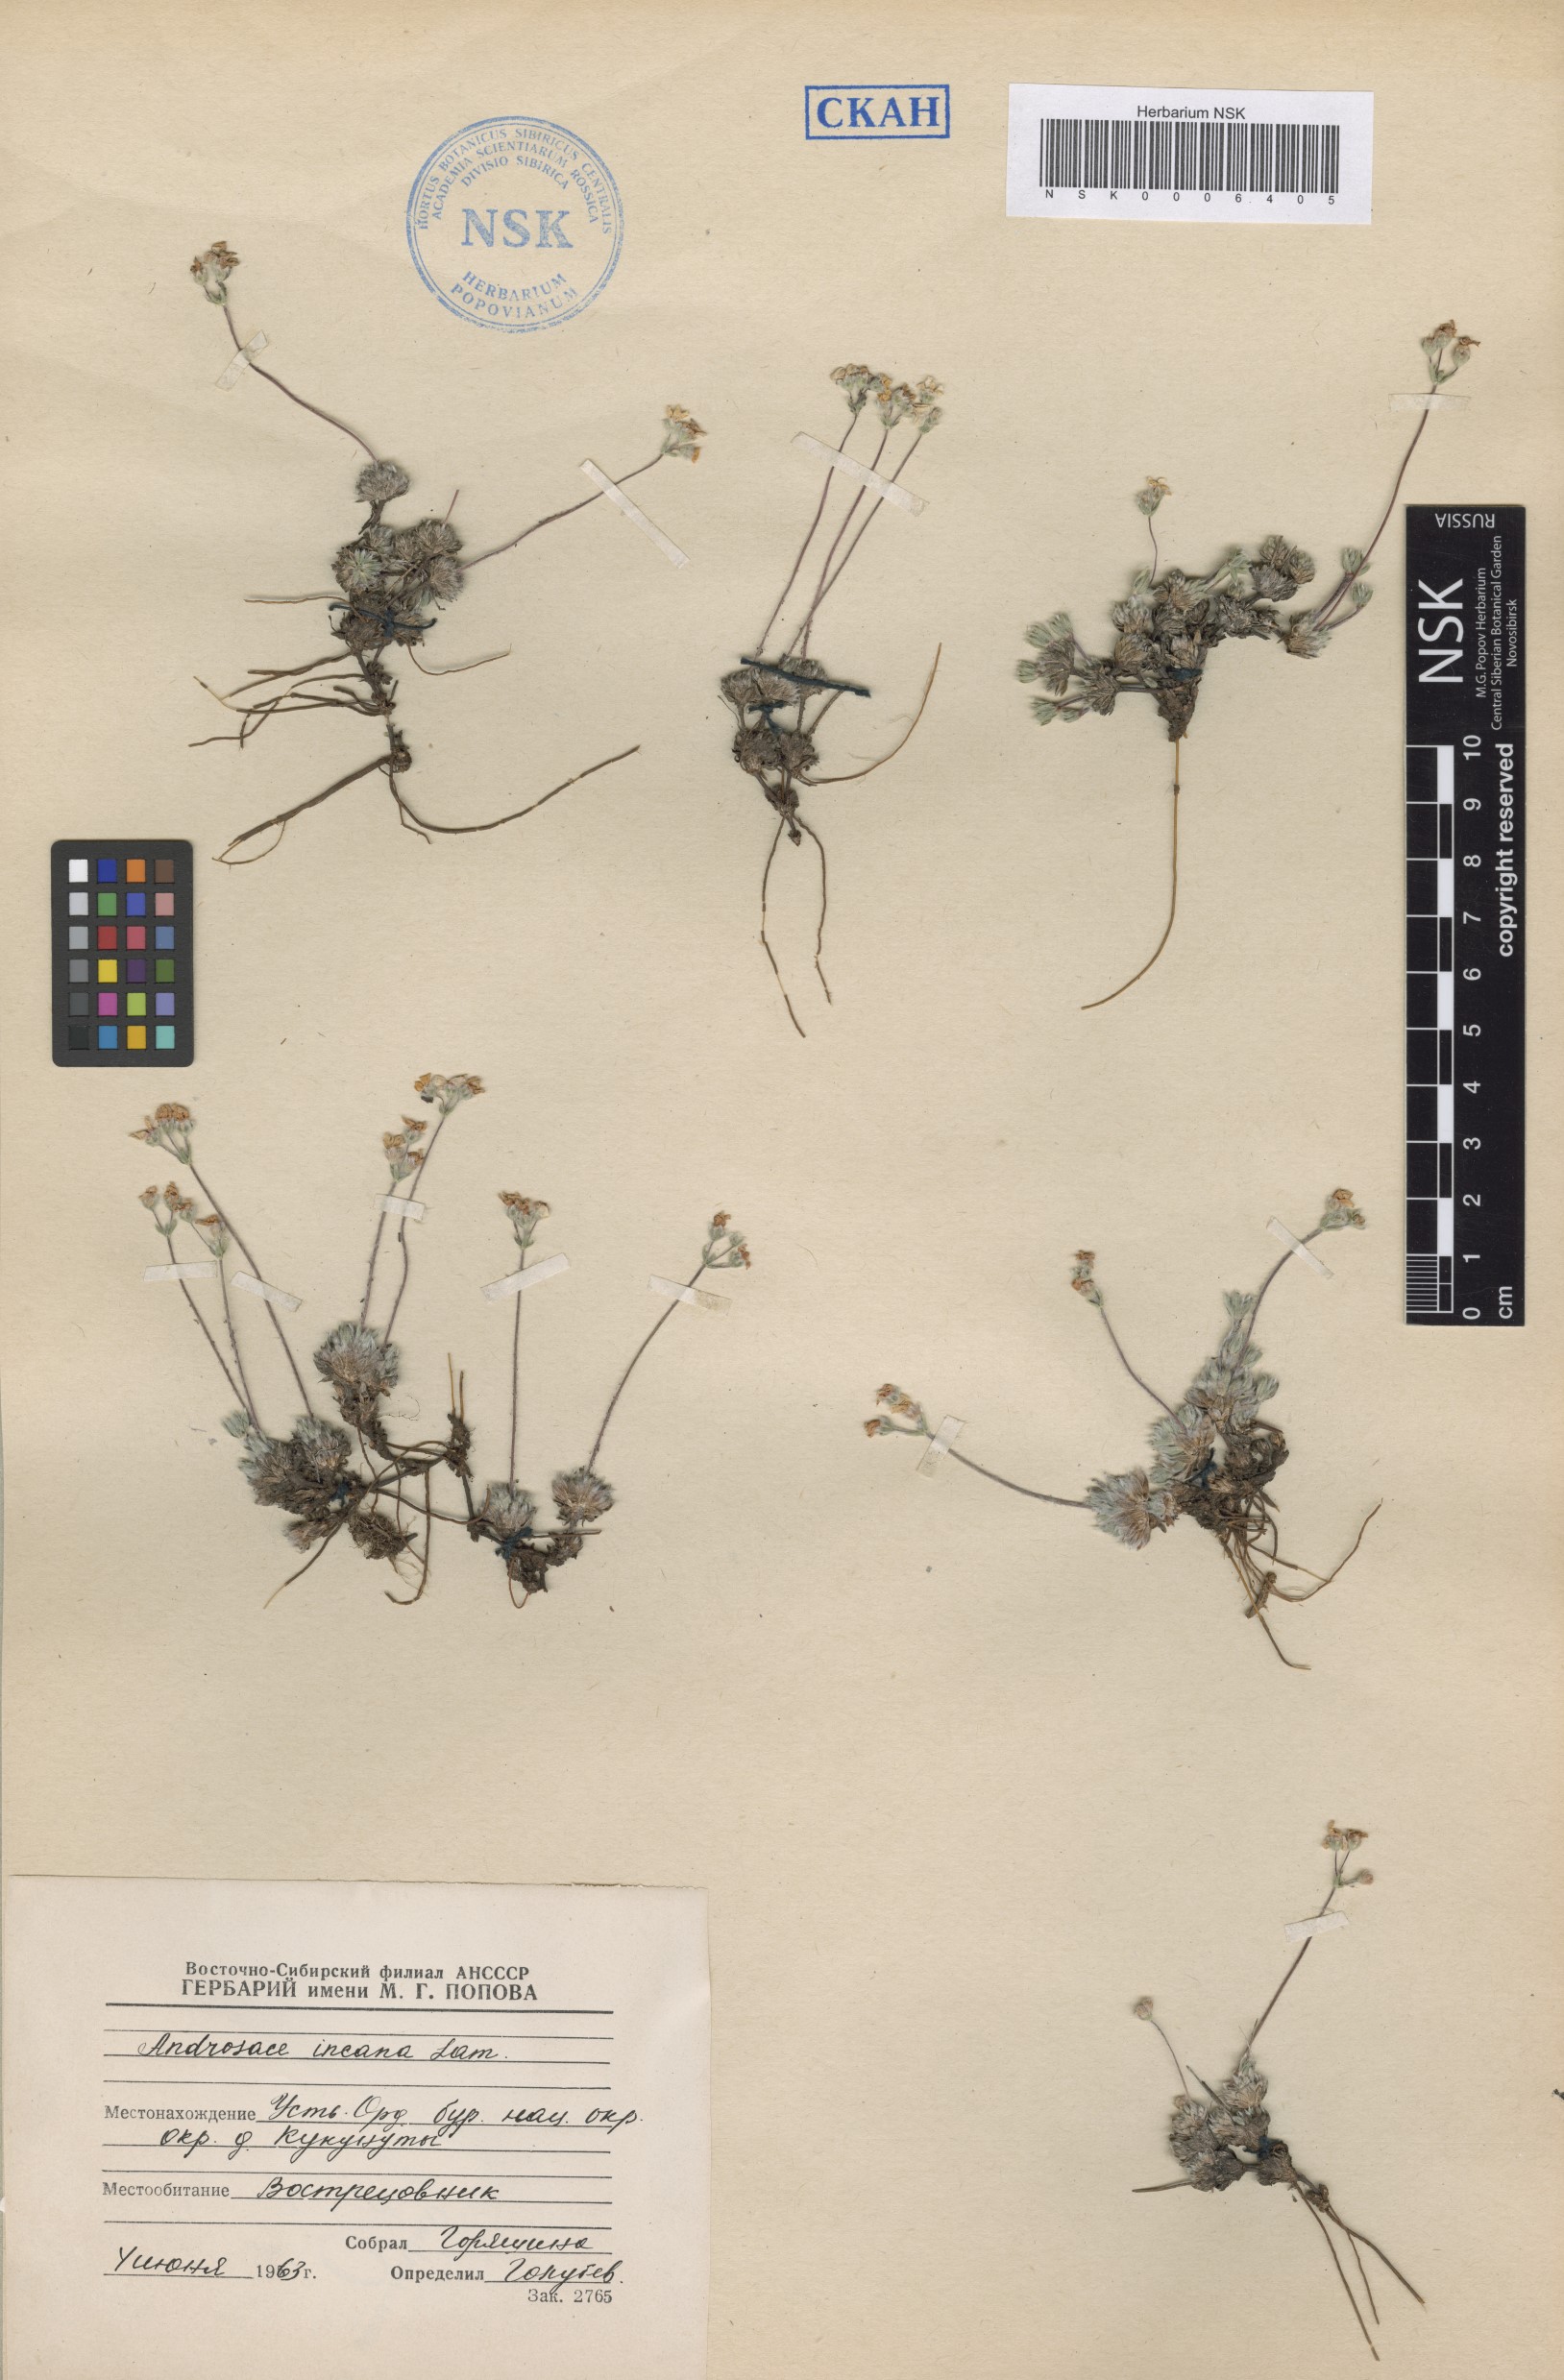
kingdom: Plantae
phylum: Tracheophyta
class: Magnoliopsida
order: Ericales
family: Primulaceae
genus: Androsace
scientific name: Androsace incana
